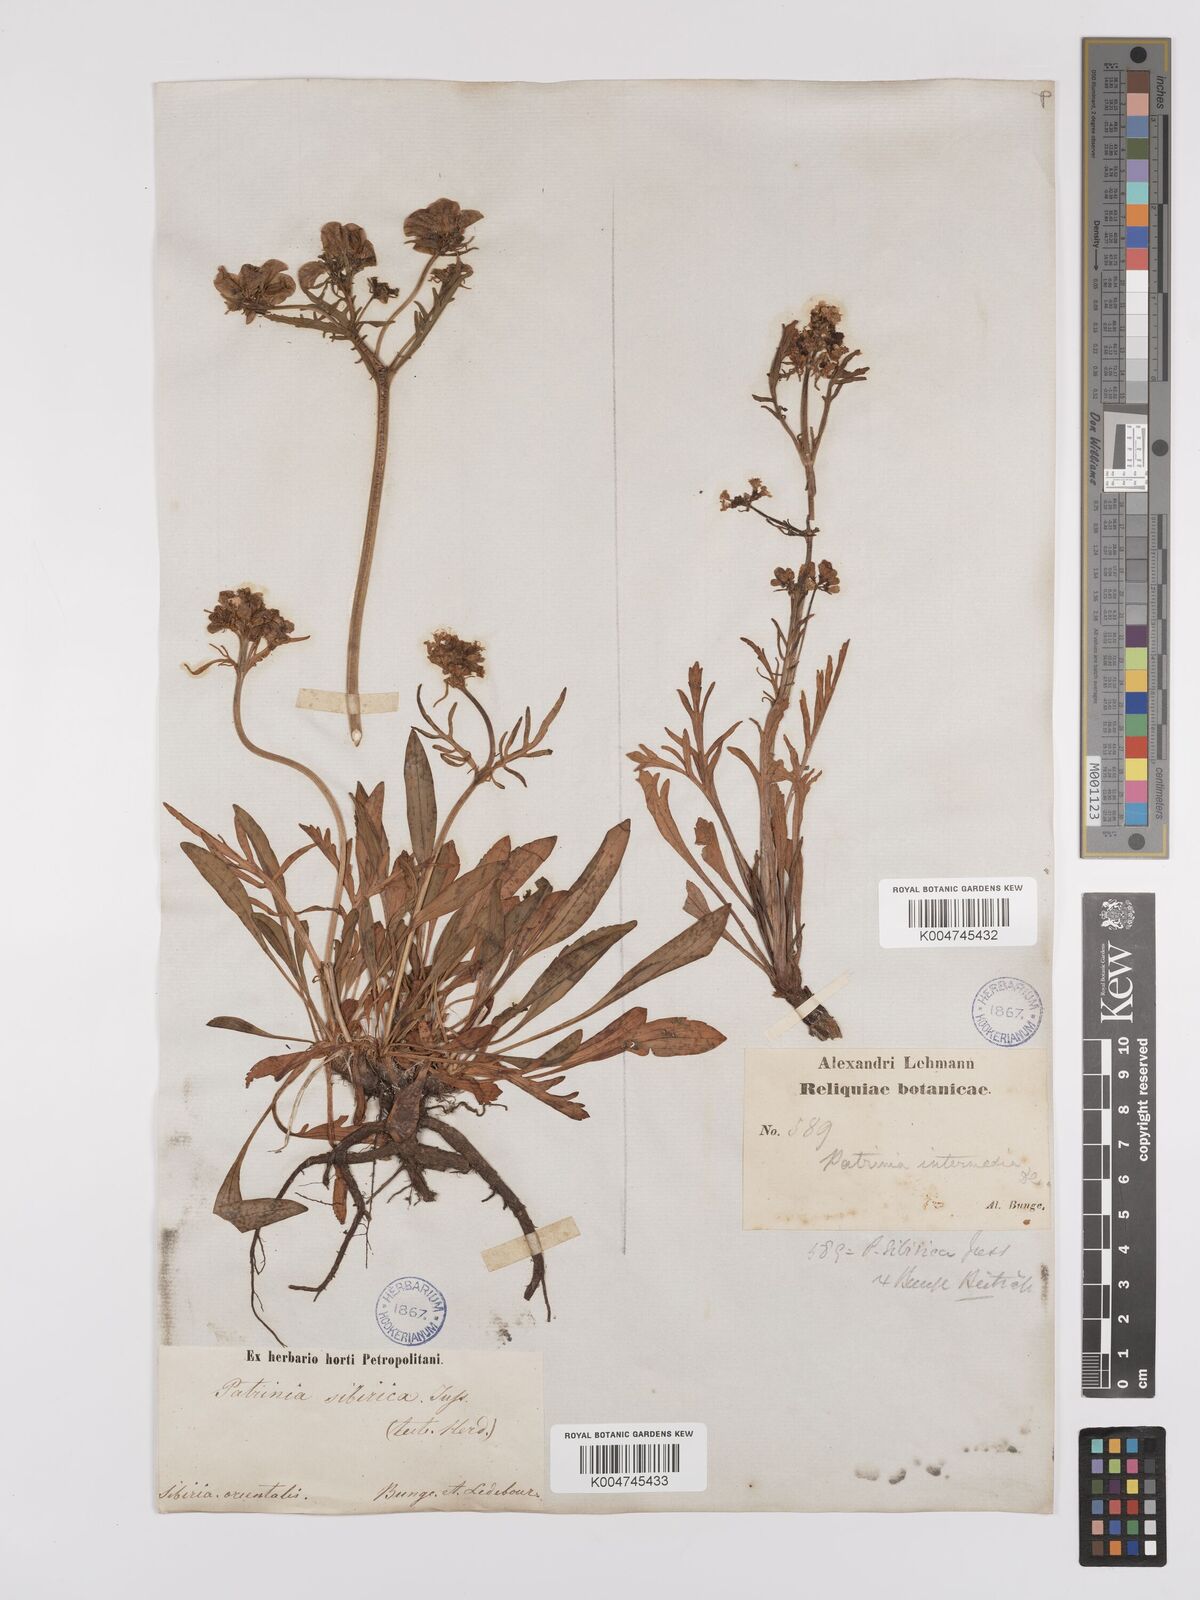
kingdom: Plantae
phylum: Tracheophyta
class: Magnoliopsida
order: Dipsacales
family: Caprifoliaceae
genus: Patrinia
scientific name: Patrinia sibirica
